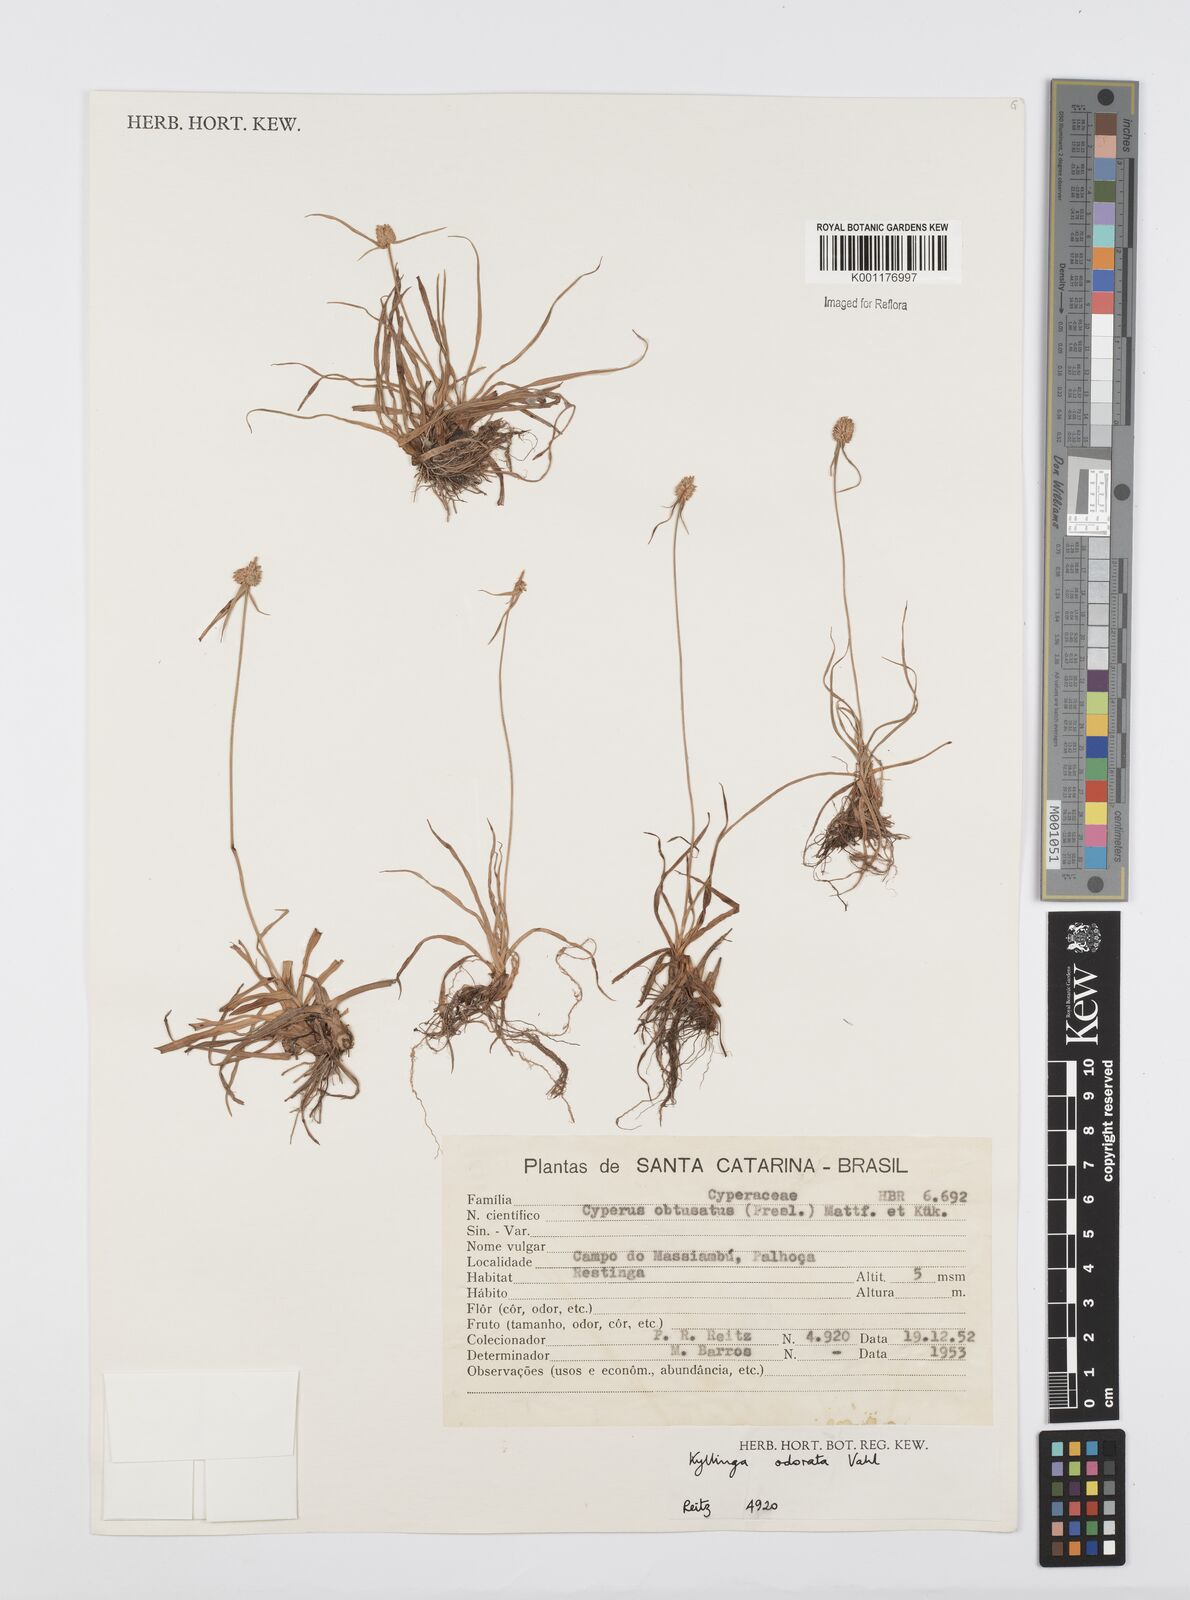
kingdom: Plantae
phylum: Tracheophyta
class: Liliopsida
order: Poales
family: Cyperaceae
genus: Cyperus
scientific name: Cyperus
